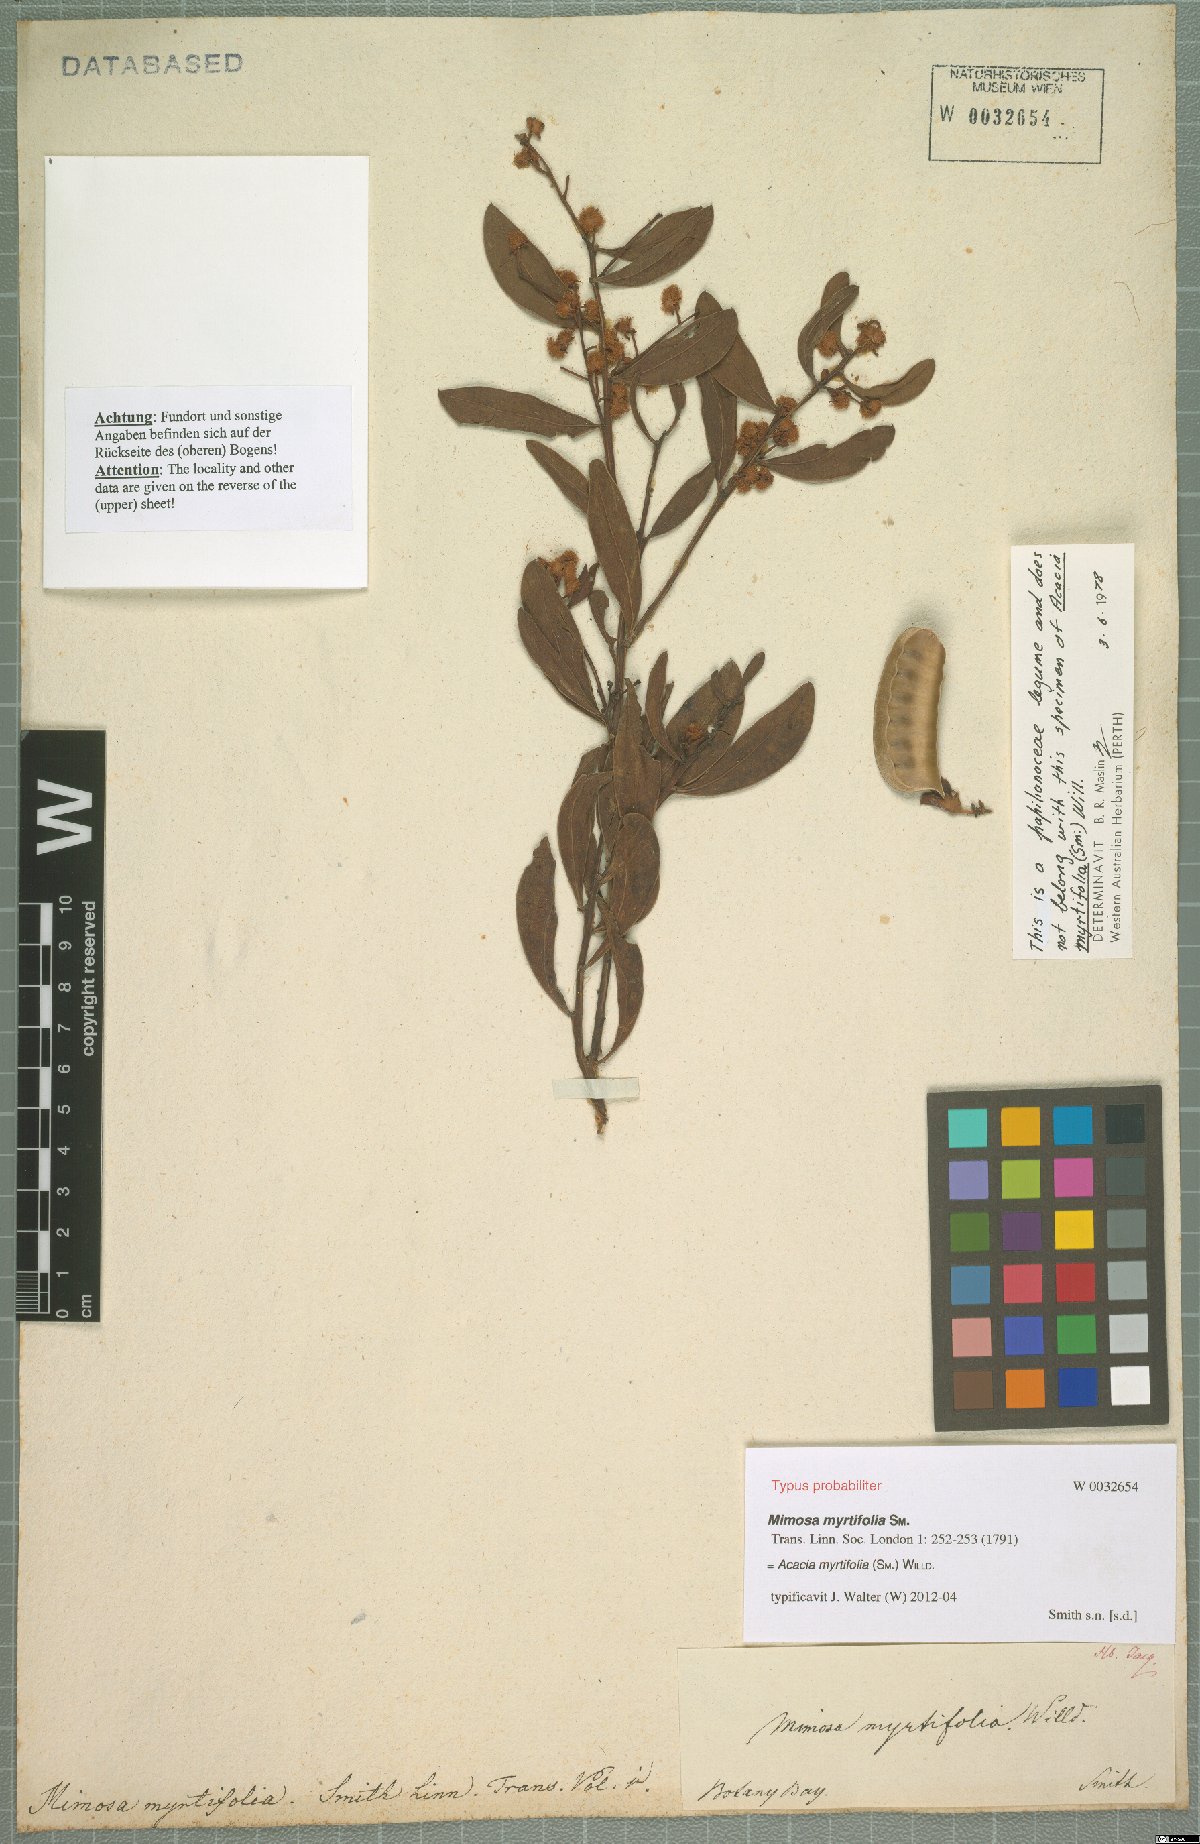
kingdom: Plantae
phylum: Tracheophyta
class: Magnoliopsida
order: Fabales
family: Fabaceae
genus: Acacia
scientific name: Acacia myrtifolia
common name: Myrtle wattle
